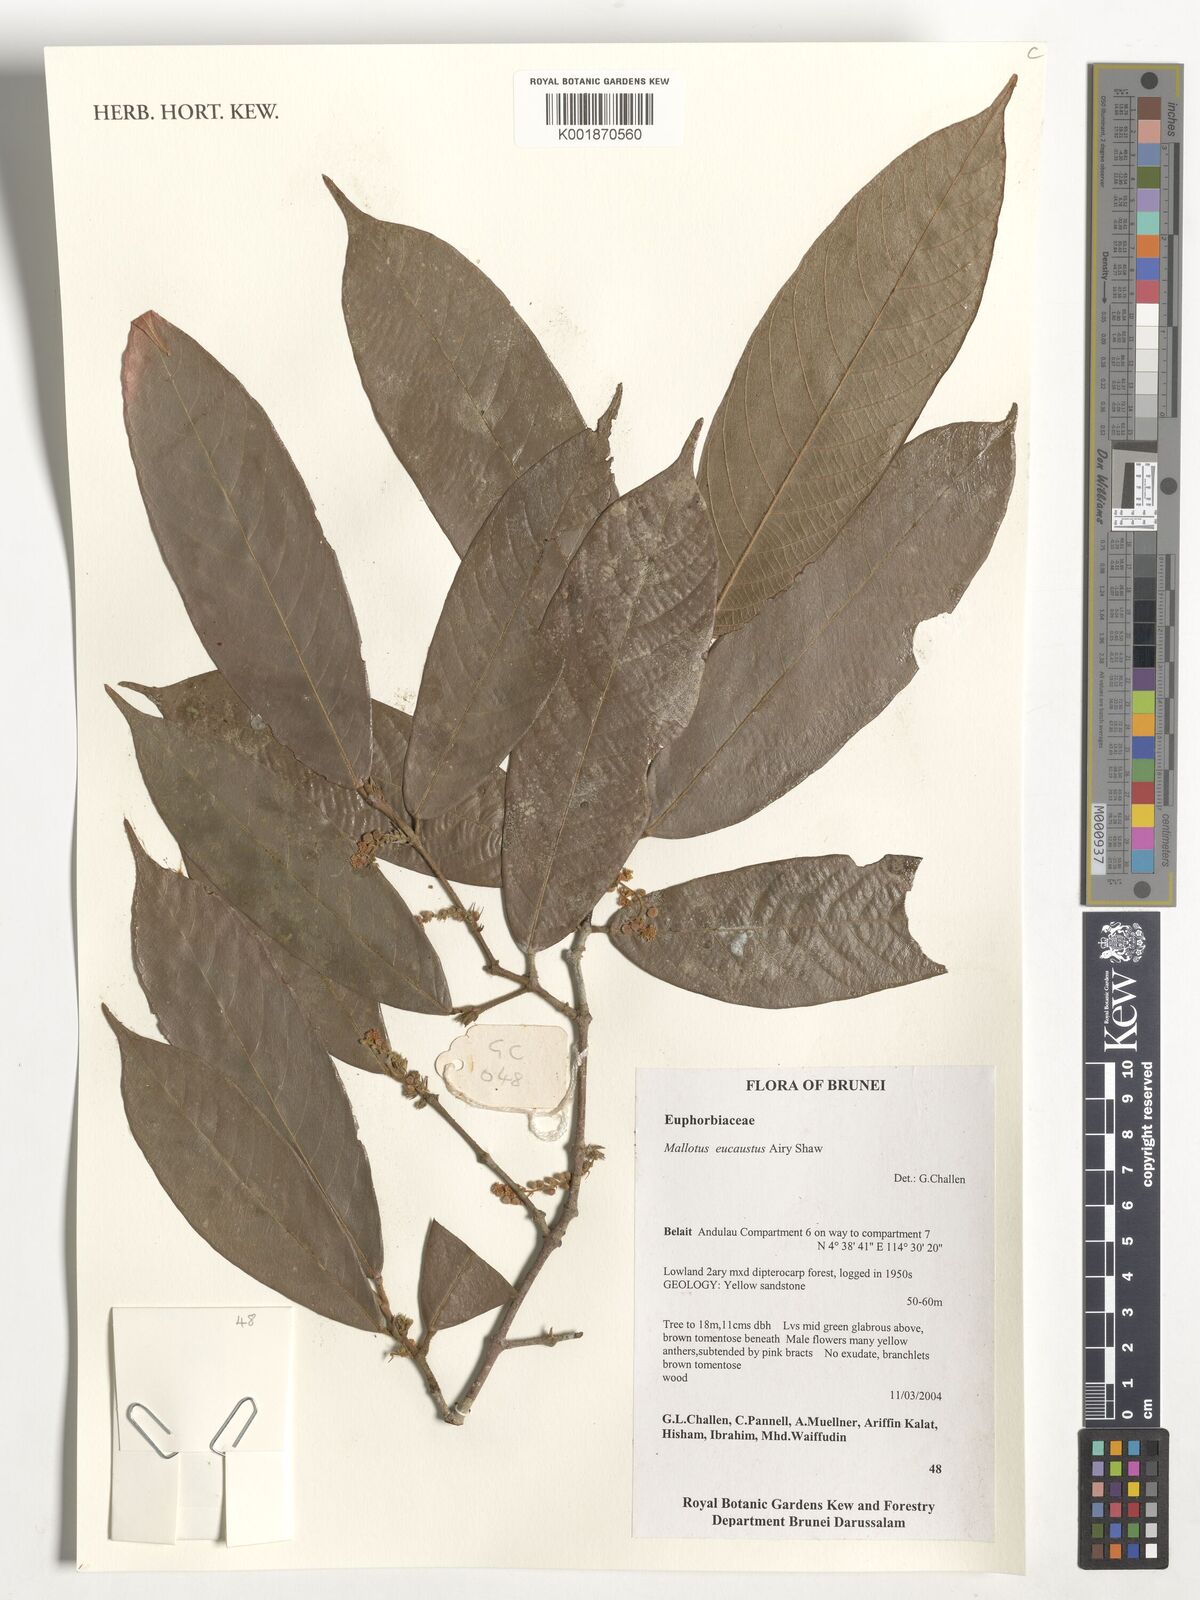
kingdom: Plantae
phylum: Tracheophyta
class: Magnoliopsida
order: Malpighiales
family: Euphorbiaceae
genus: Hancea
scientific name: Hancea eucausta
